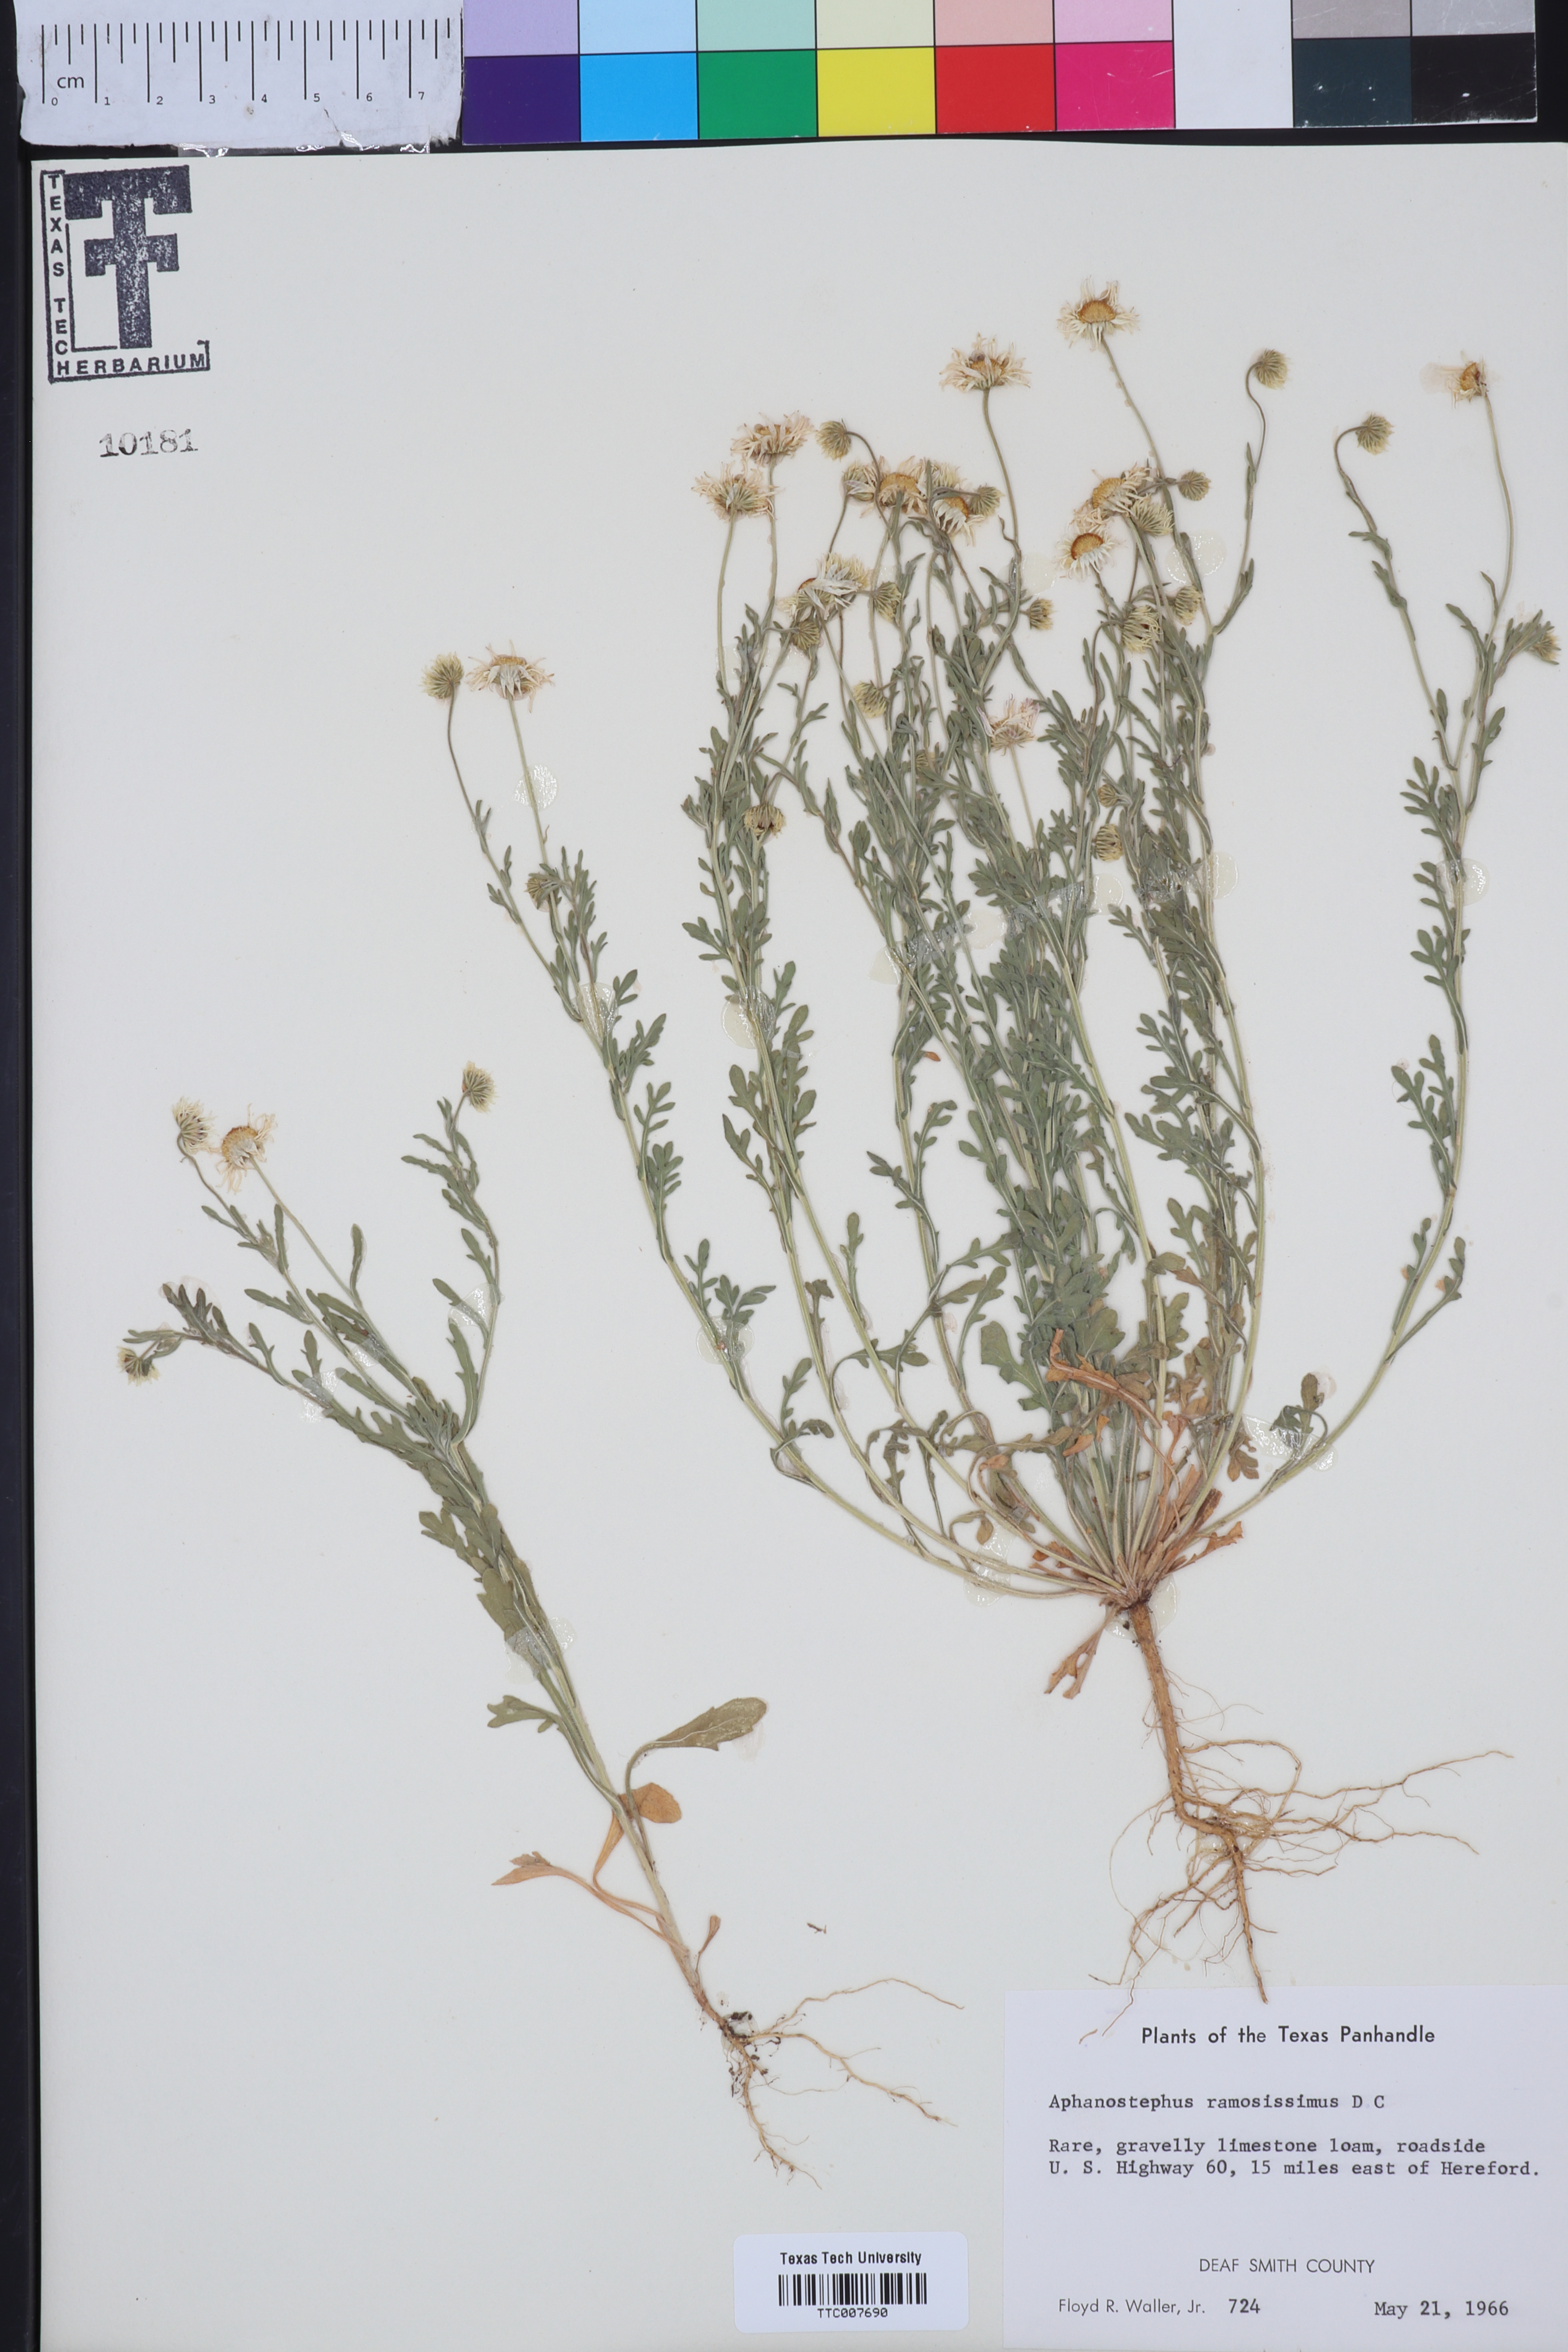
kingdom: Plantae
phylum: Tracheophyta
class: Magnoliopsida
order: Asterales
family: Asteraceae
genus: Aphanostephus
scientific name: Aphanostephus ramosissimus
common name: Plains lazy daisy
